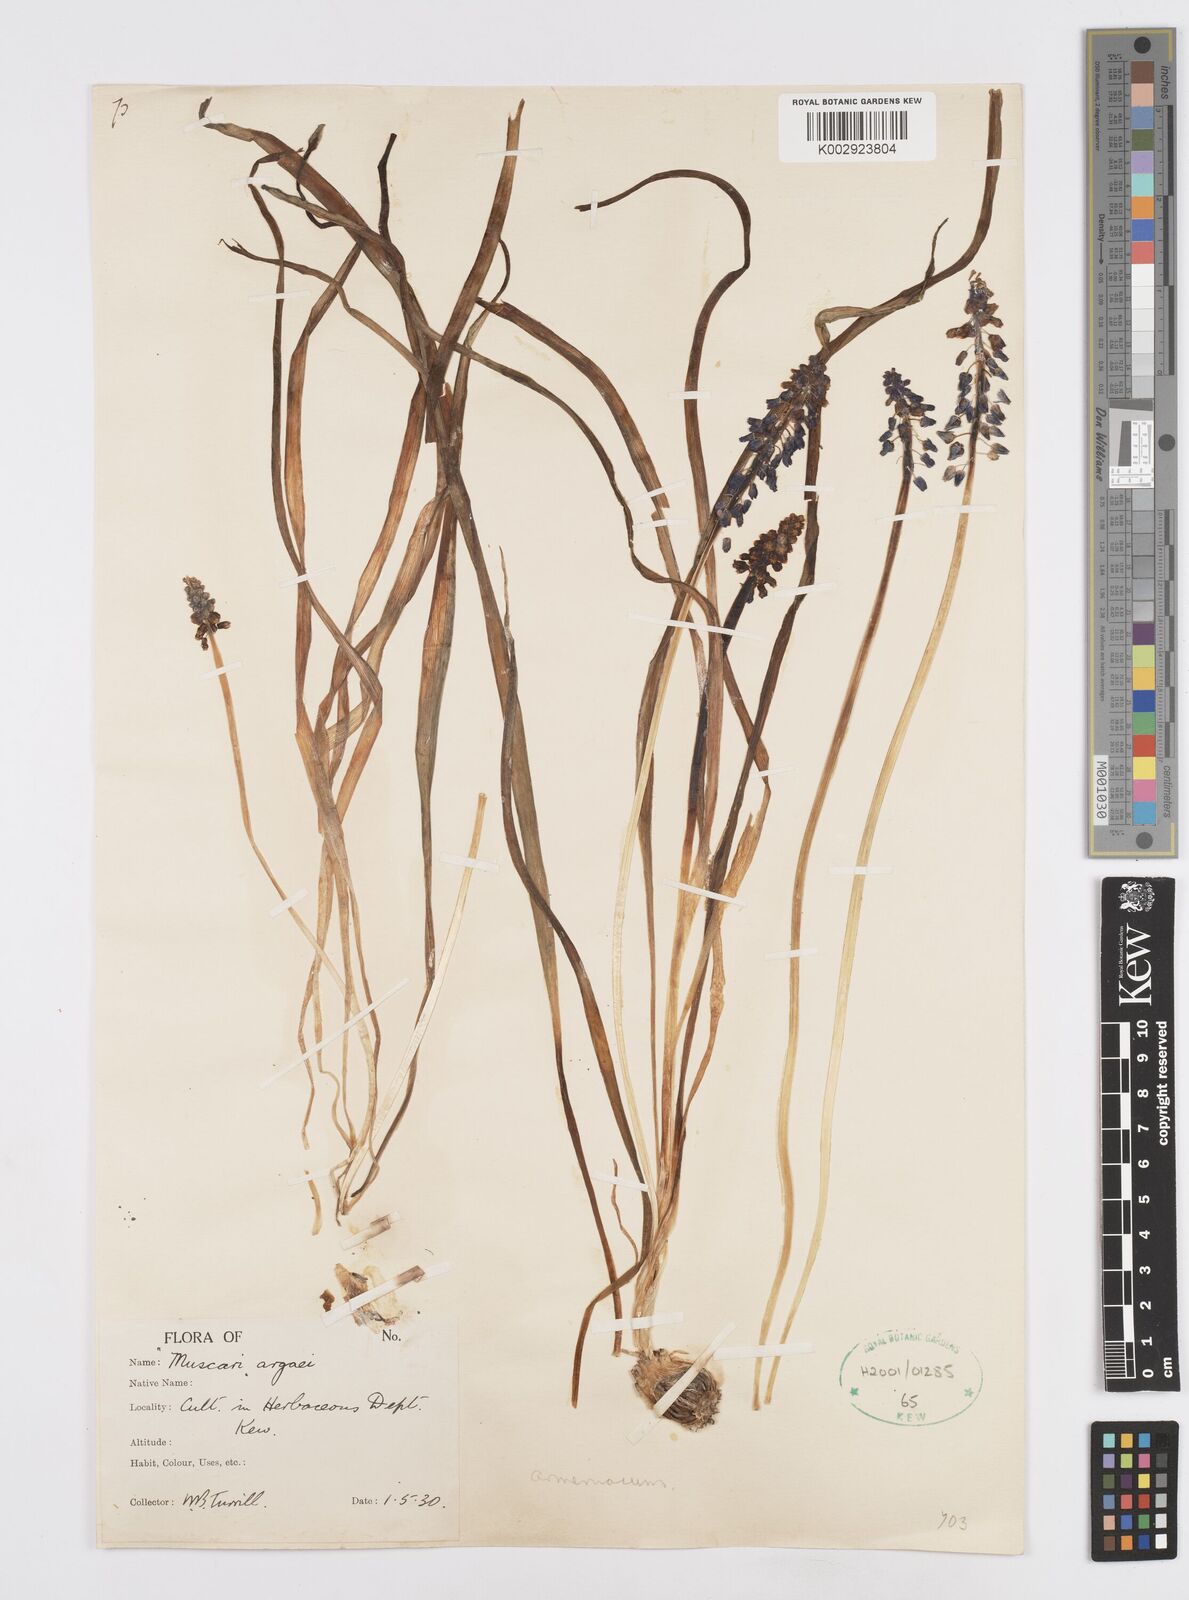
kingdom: Plantae
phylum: Tracheophyta
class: Liliopsida
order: Asparagales
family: Asparagaceae
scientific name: Asparagaceae
